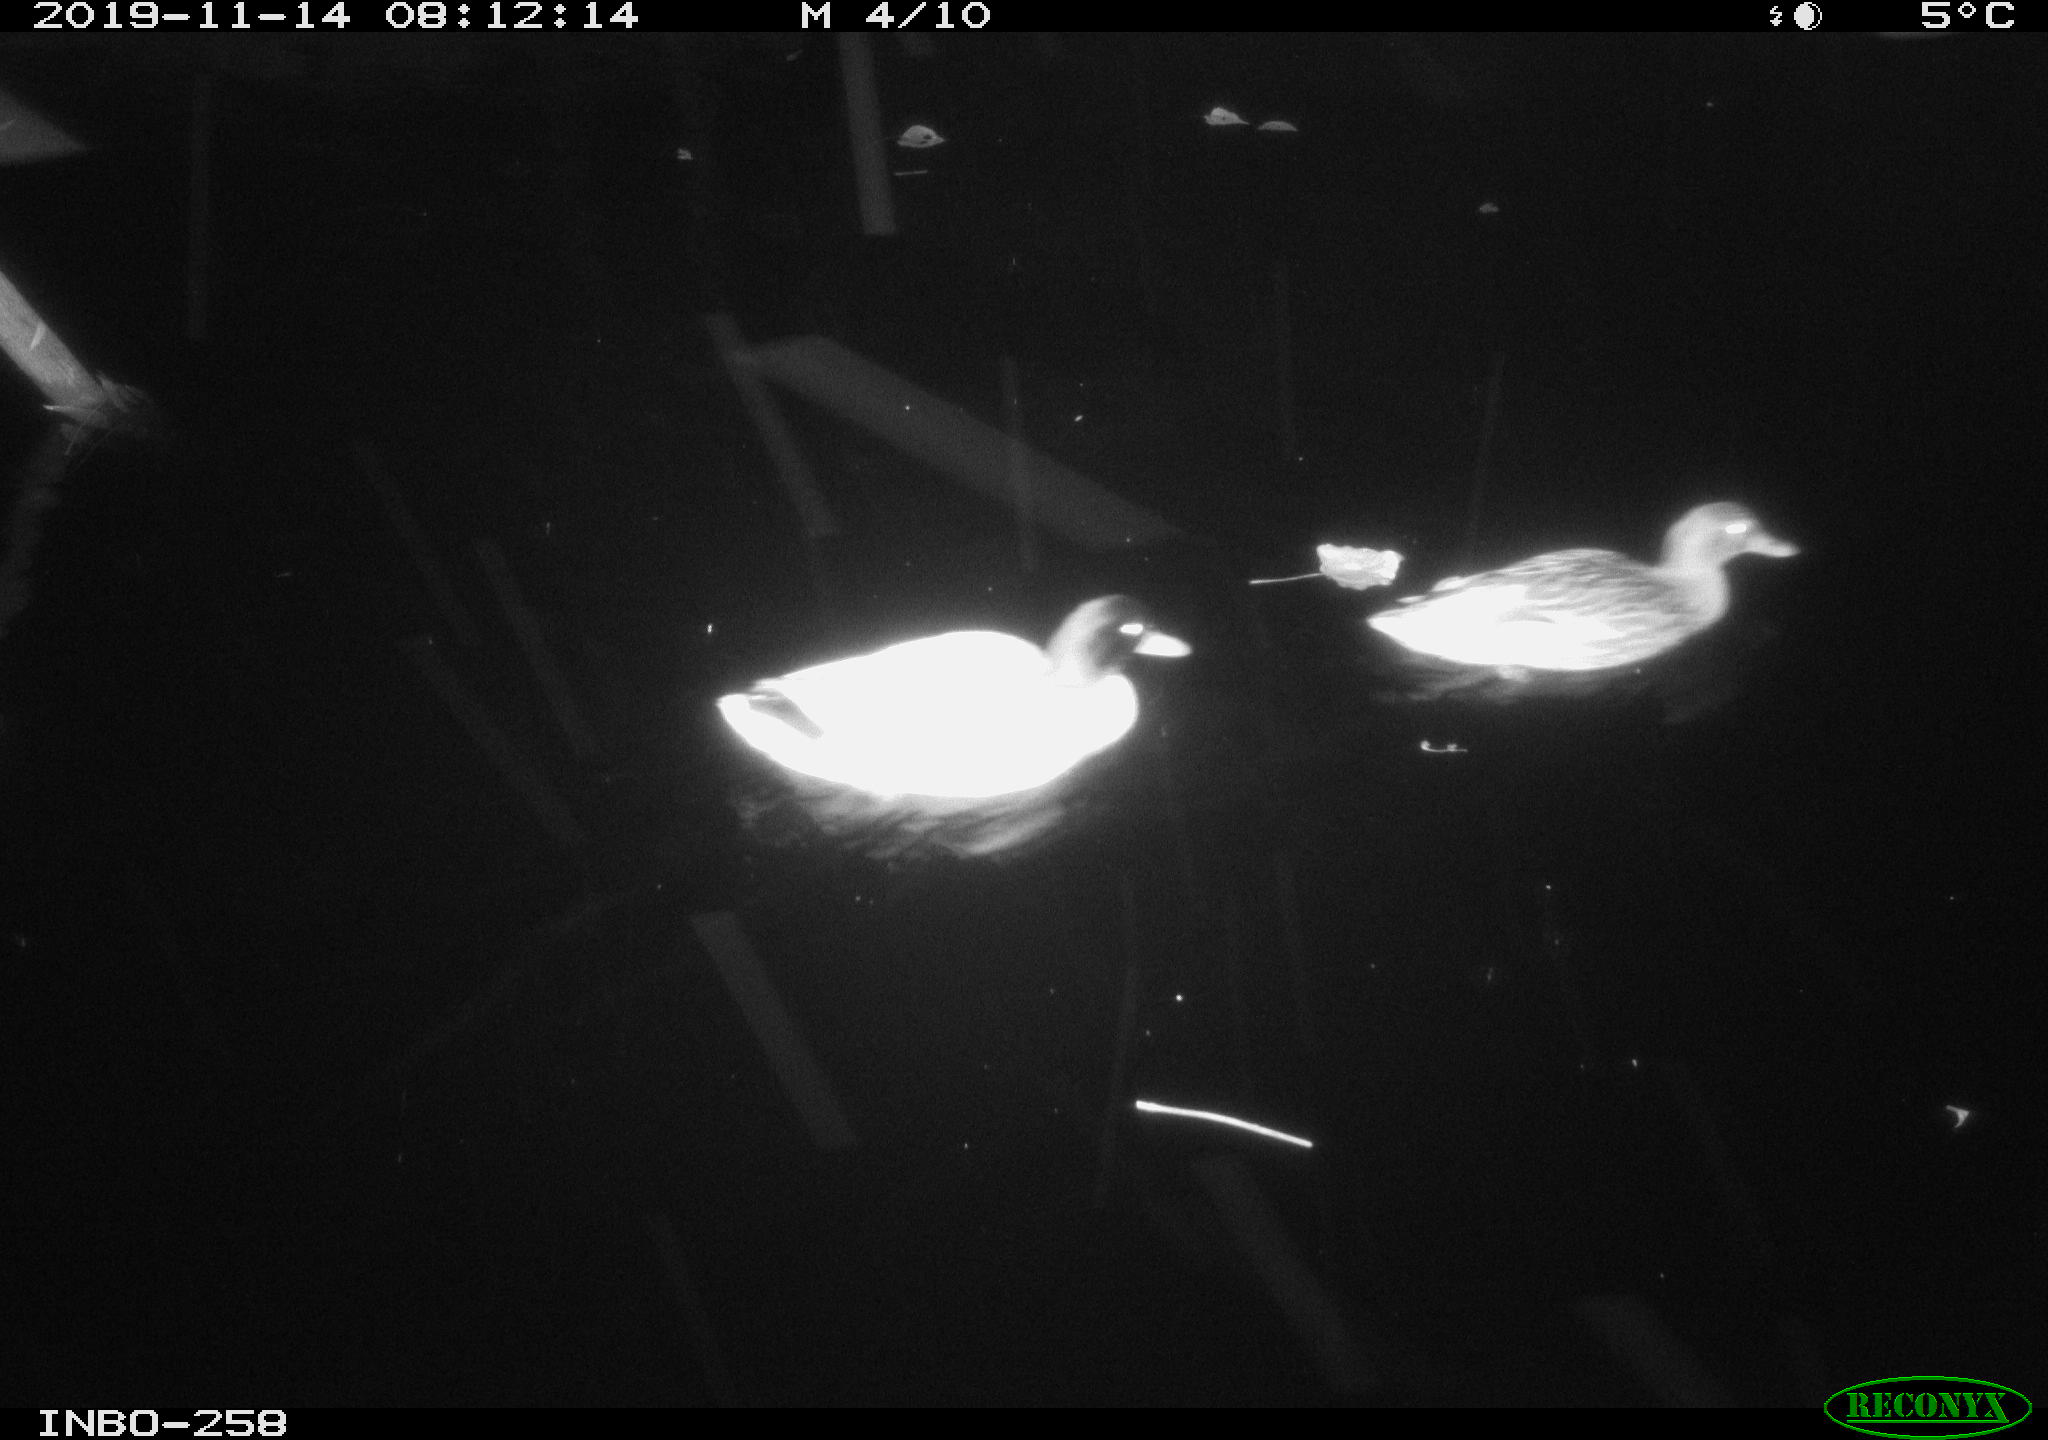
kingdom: Animalia
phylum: Chordata
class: Aves
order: Anseriformes
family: Anatidae
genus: Anas
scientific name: Anas platyrhynchos
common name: Mallard
